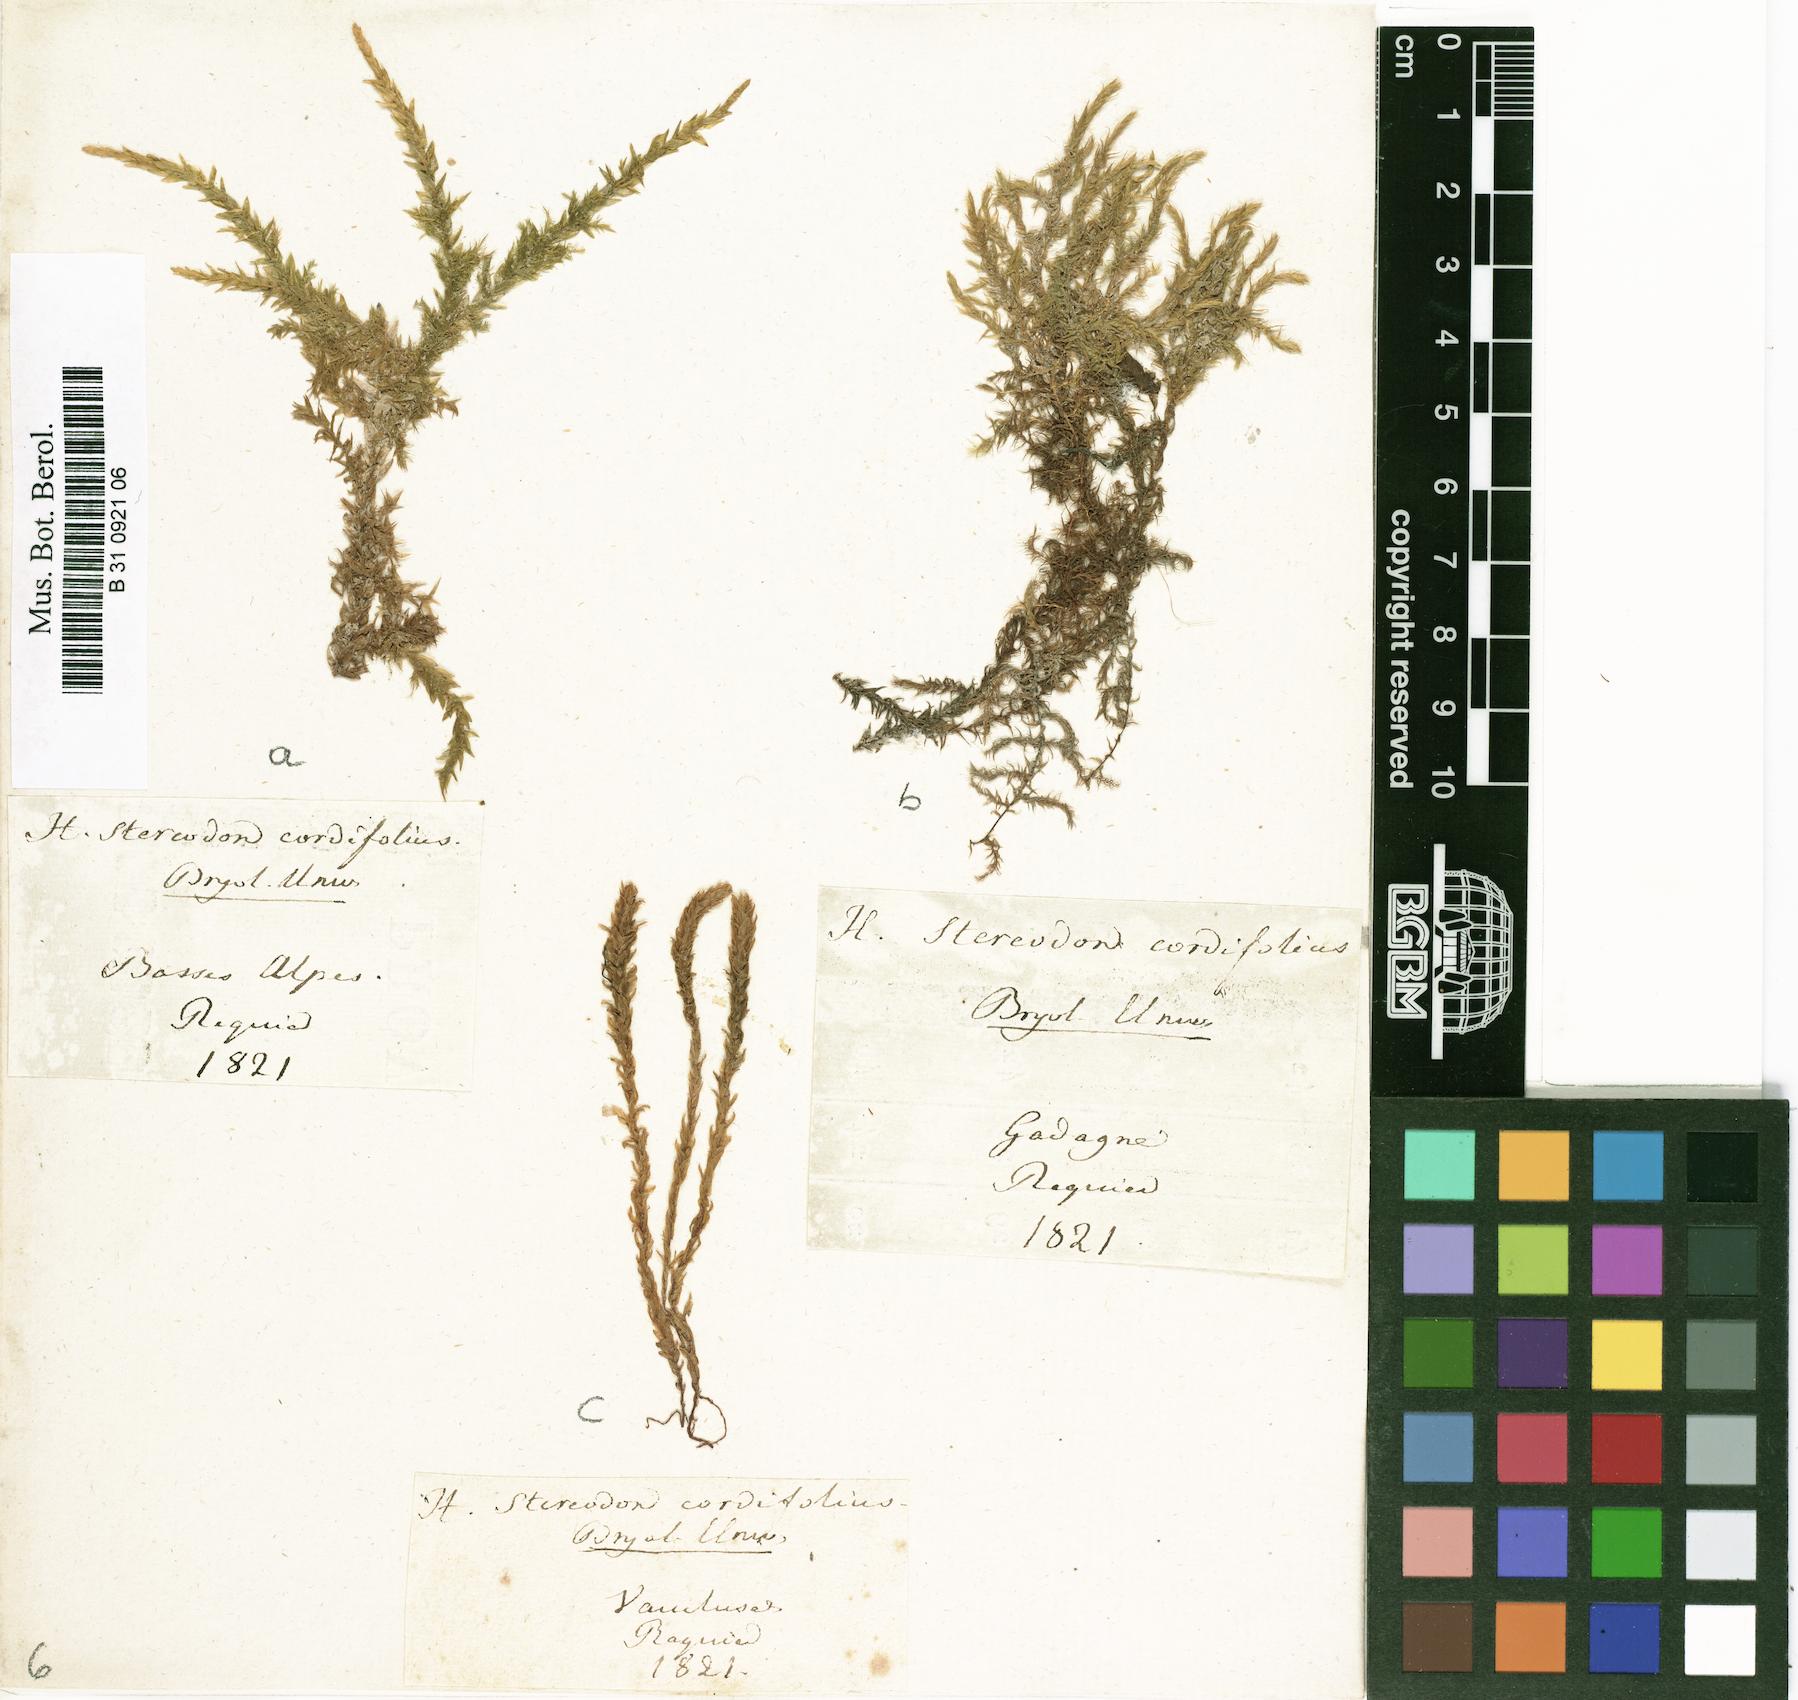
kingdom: Plantae
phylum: Bryophyta
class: Bryopsida
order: Hypnales
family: Calliergonaceae
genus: Calliergon
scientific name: Calliergon cordifolium
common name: Heart-leaved spear moss
